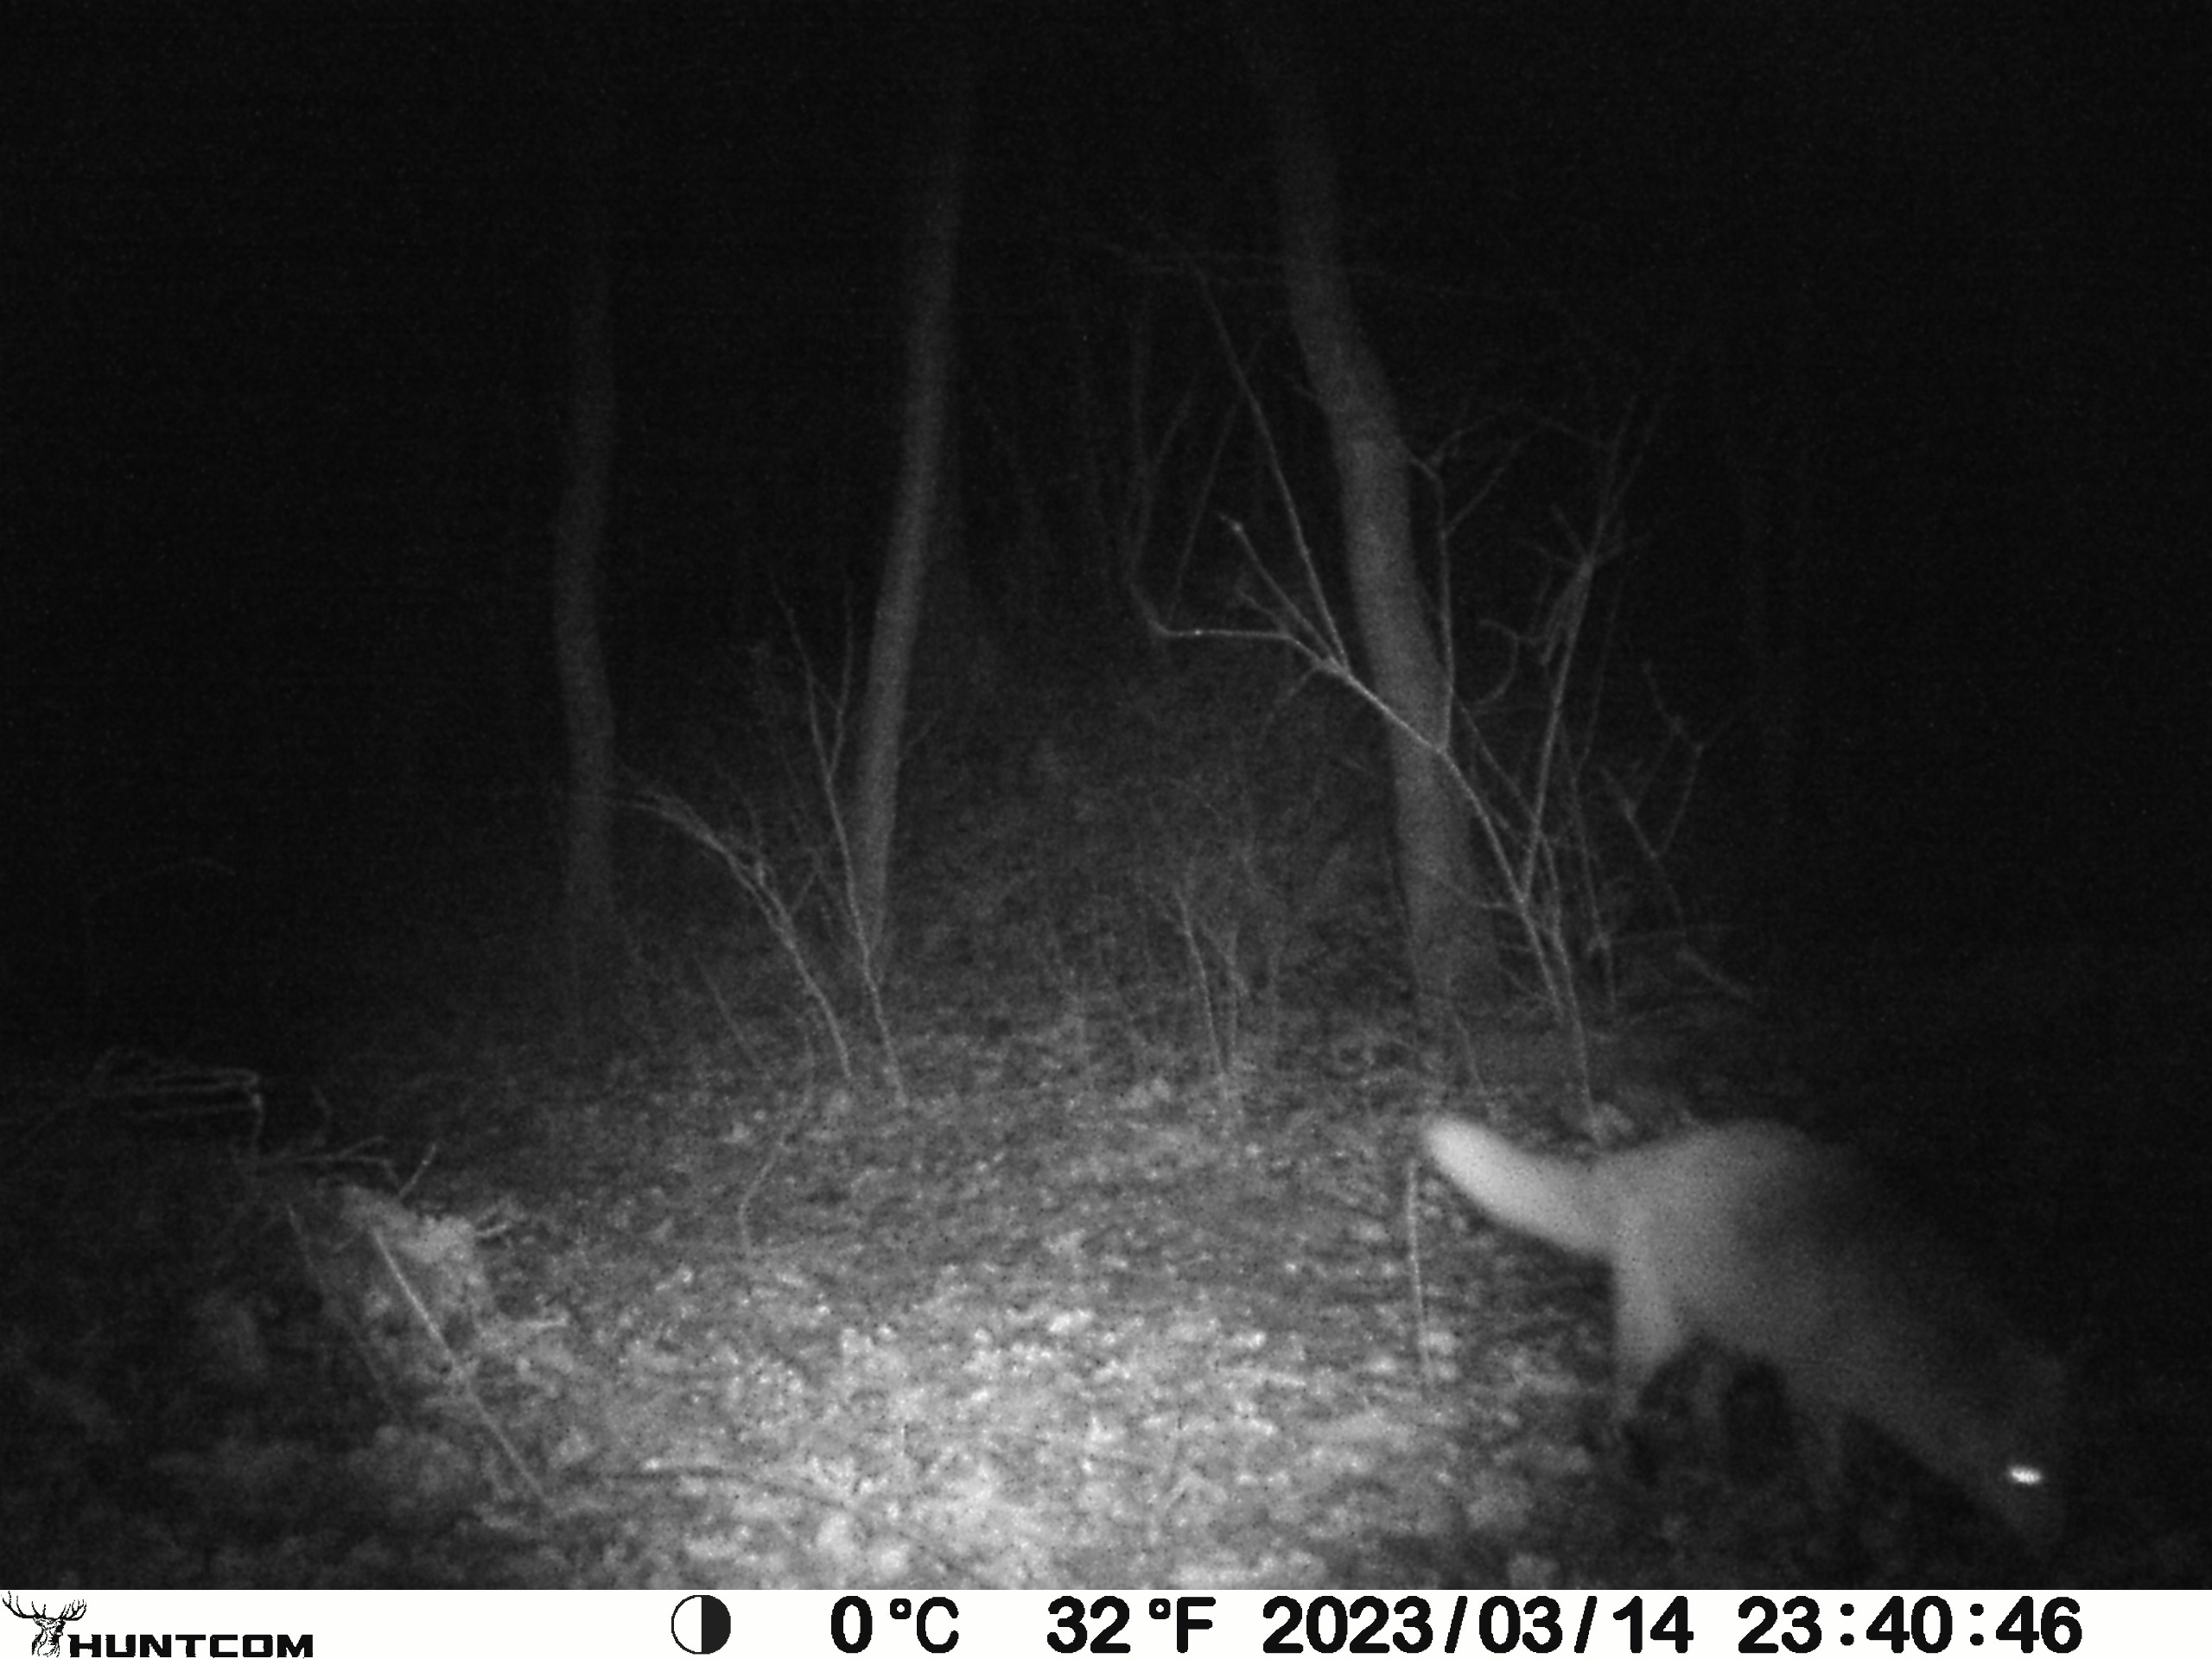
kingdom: Animalia
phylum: Chordata
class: Mammalia
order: Carnivora
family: Canidae
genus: Vulpes
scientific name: Vulpes vulpes
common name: Ræv
